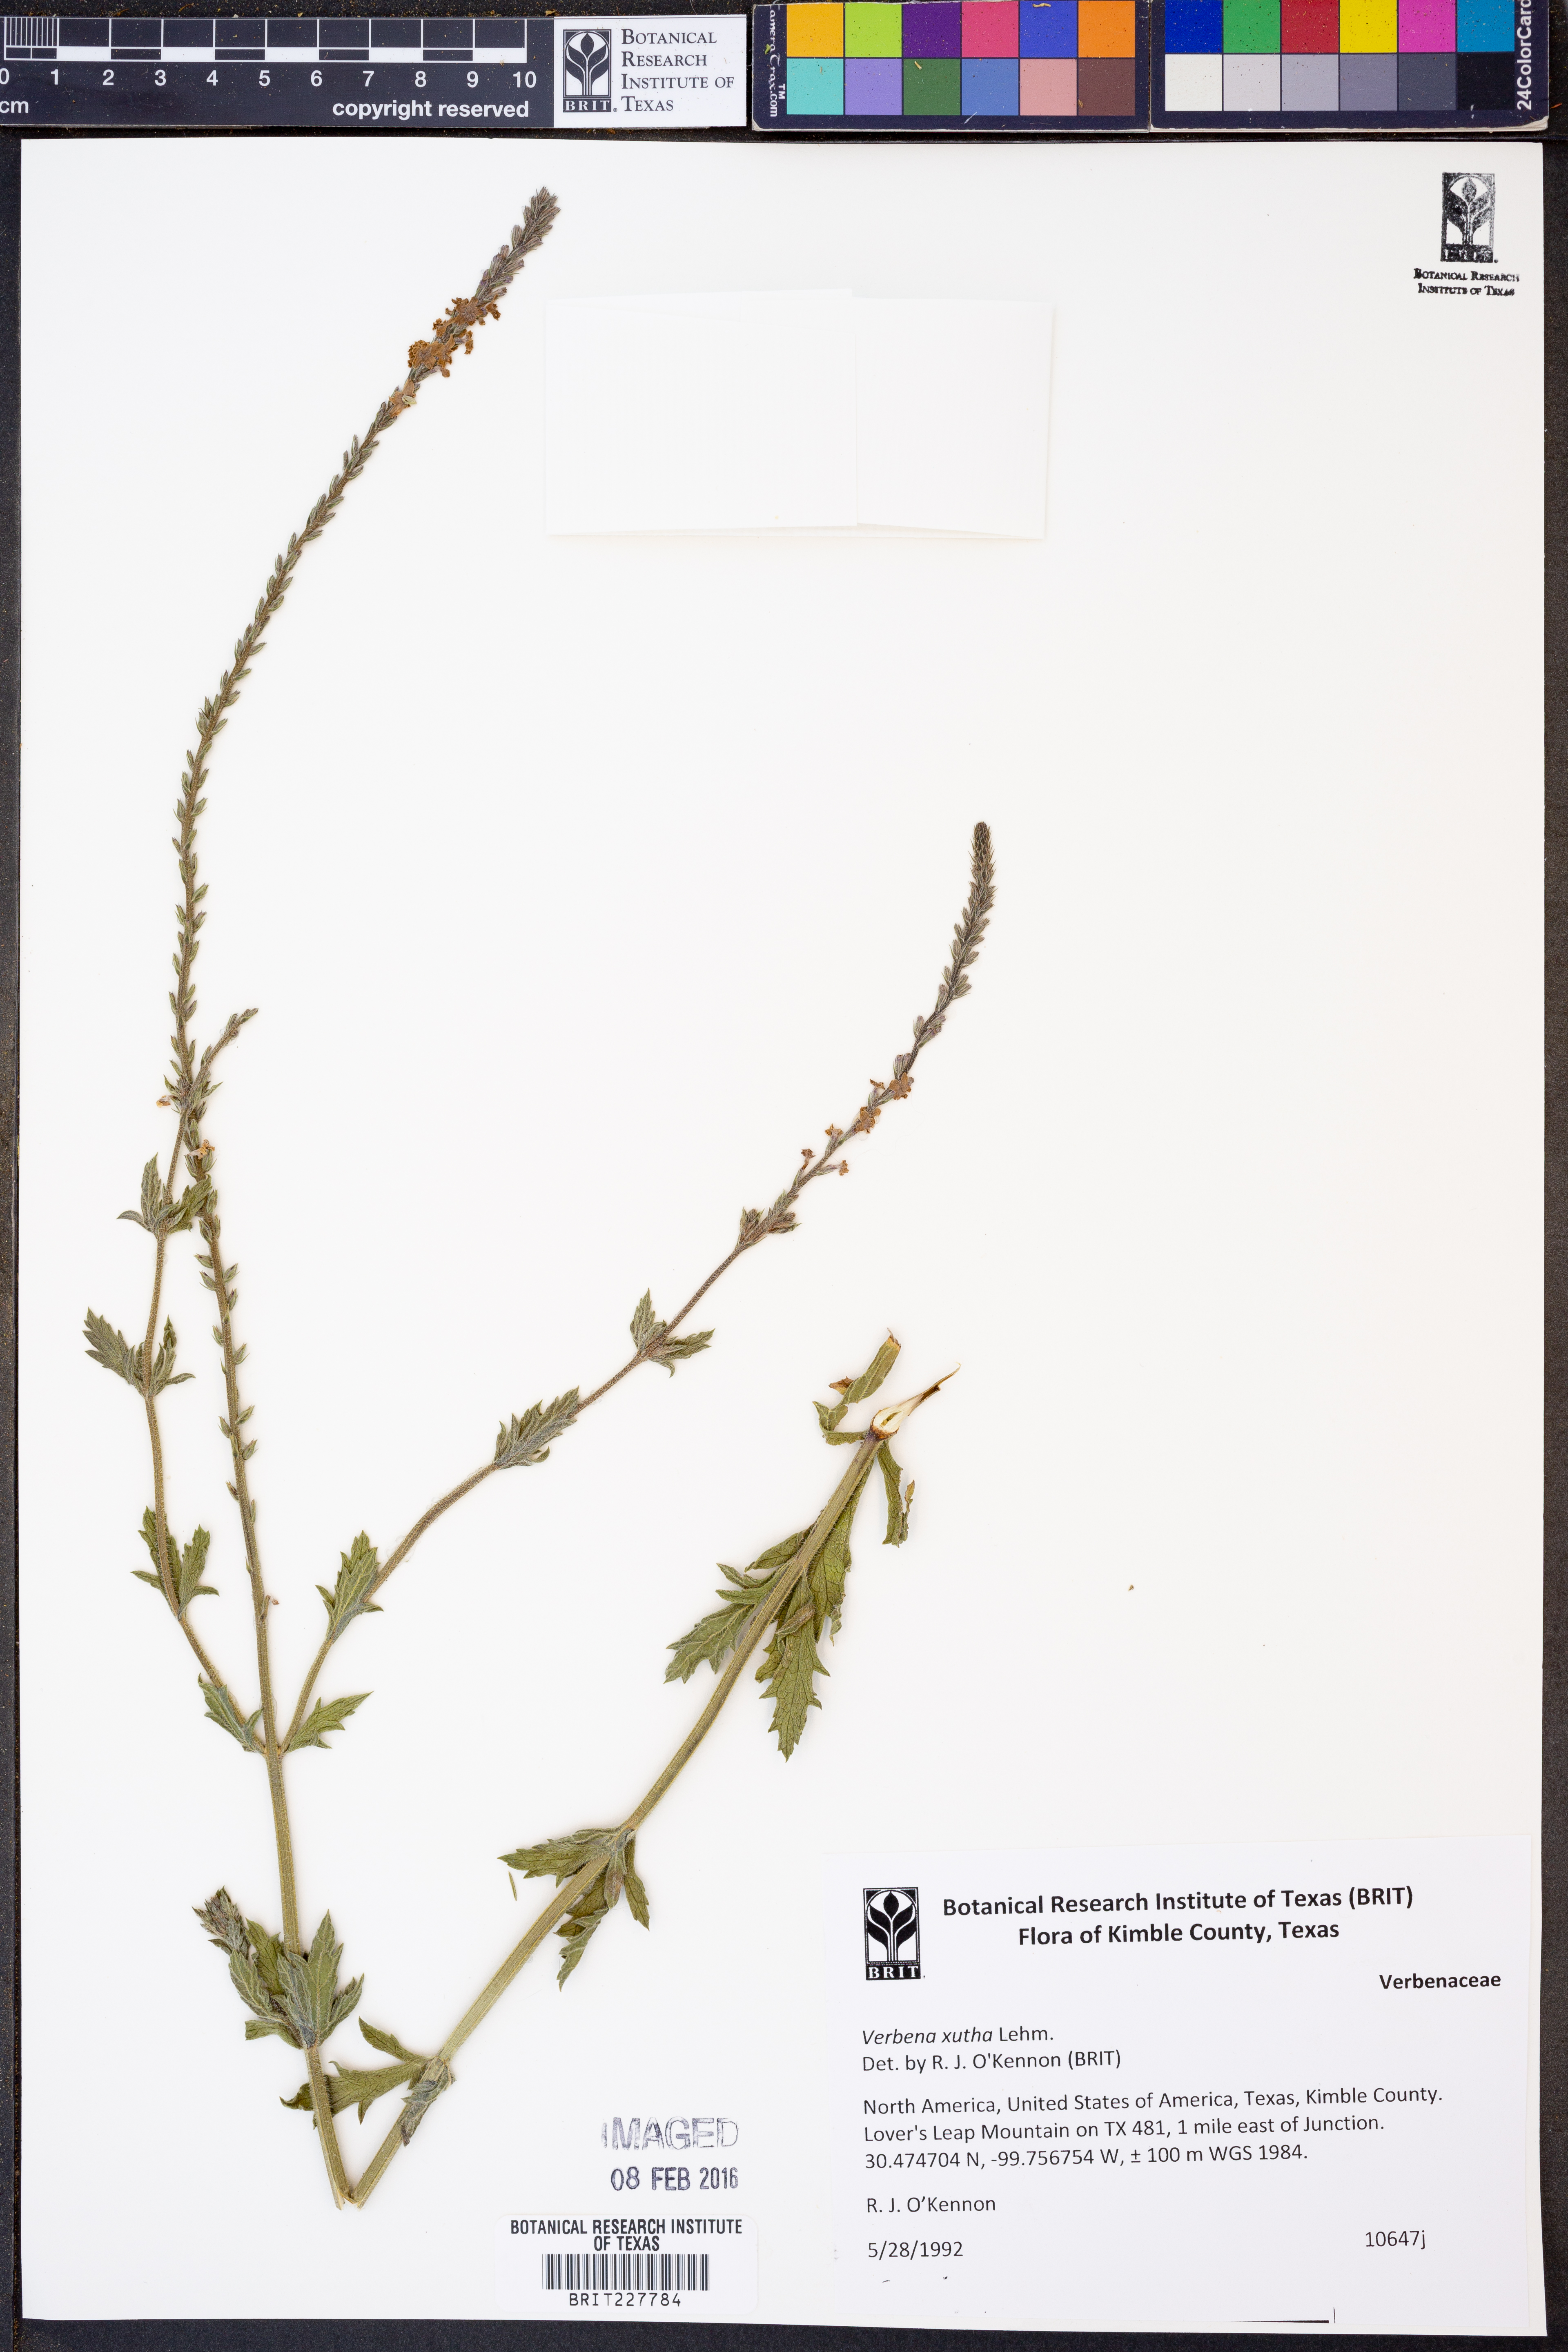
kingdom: Plantae
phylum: Tracheophyta
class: Magnoliopsida
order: Lamiales
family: Verbenaceae
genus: Verbena
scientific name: Verbena xutha
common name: Gulf vervain
